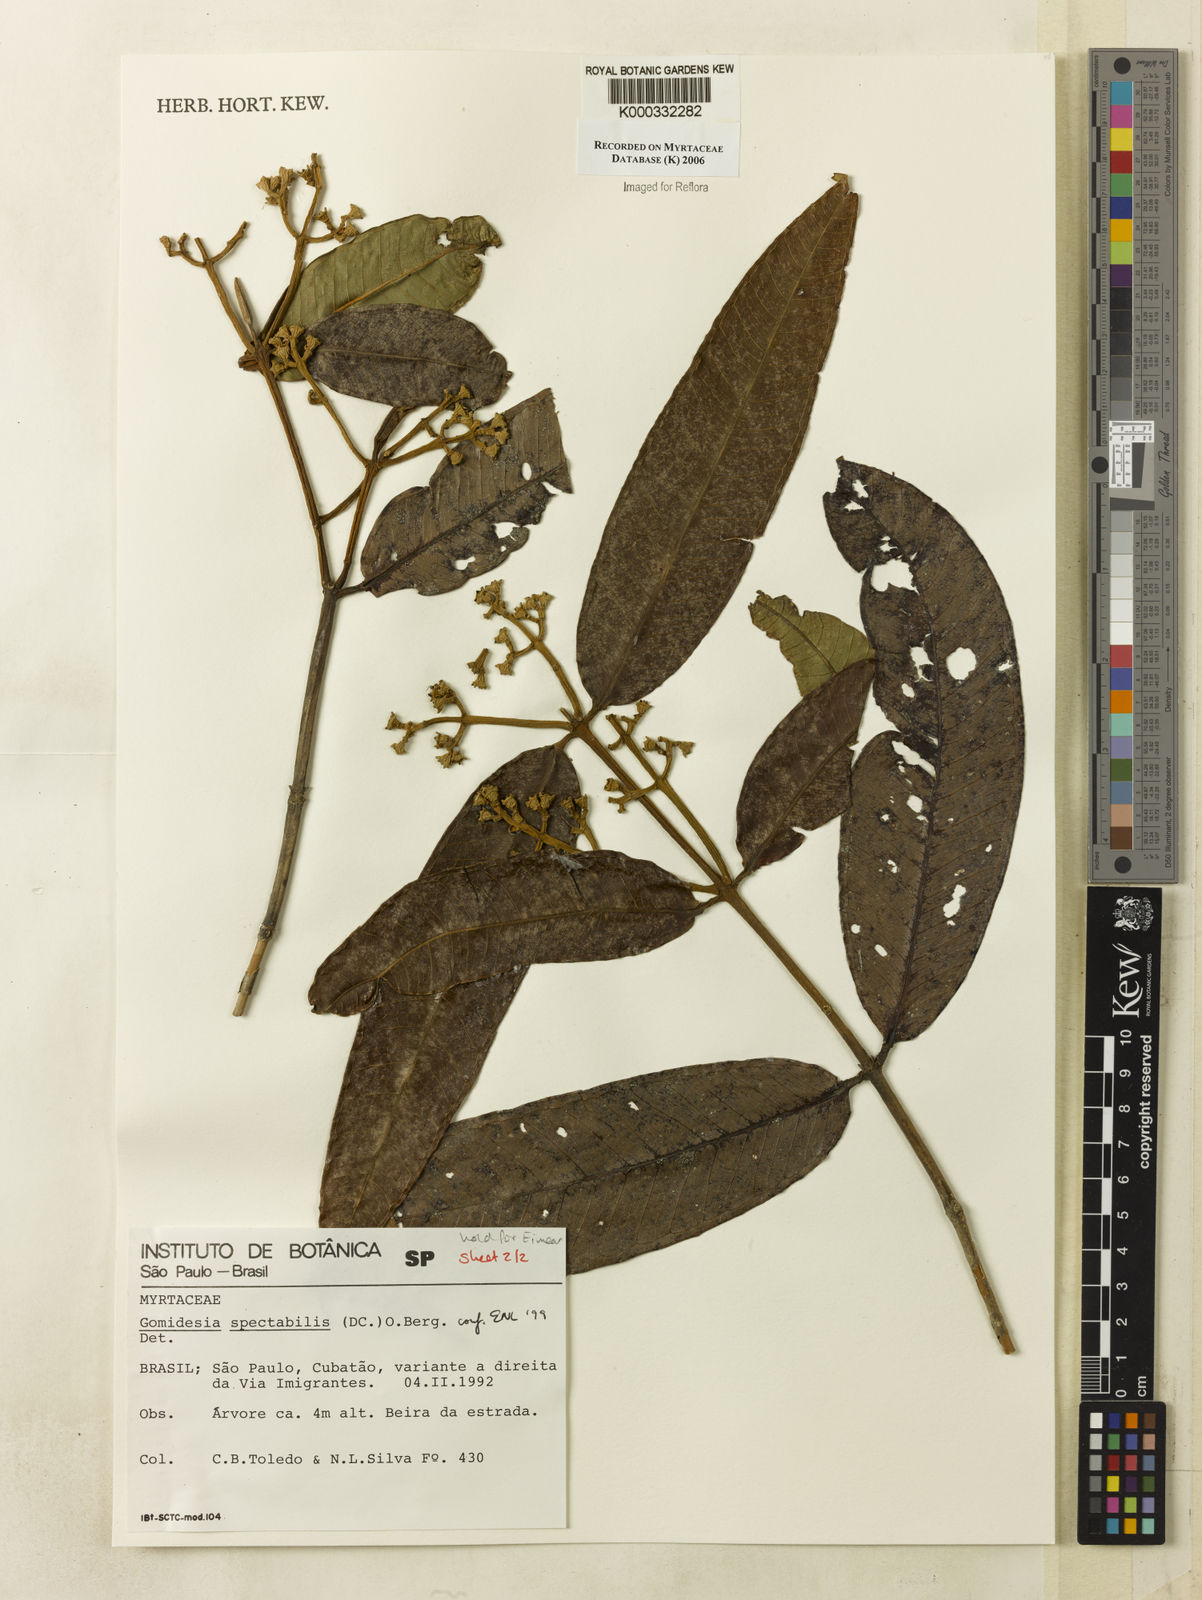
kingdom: Plantae
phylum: Tracheophyta
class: Magnoliopsida
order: Myrtales
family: Myrtaceae
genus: Myrcia
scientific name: Myrcia spectabilis
